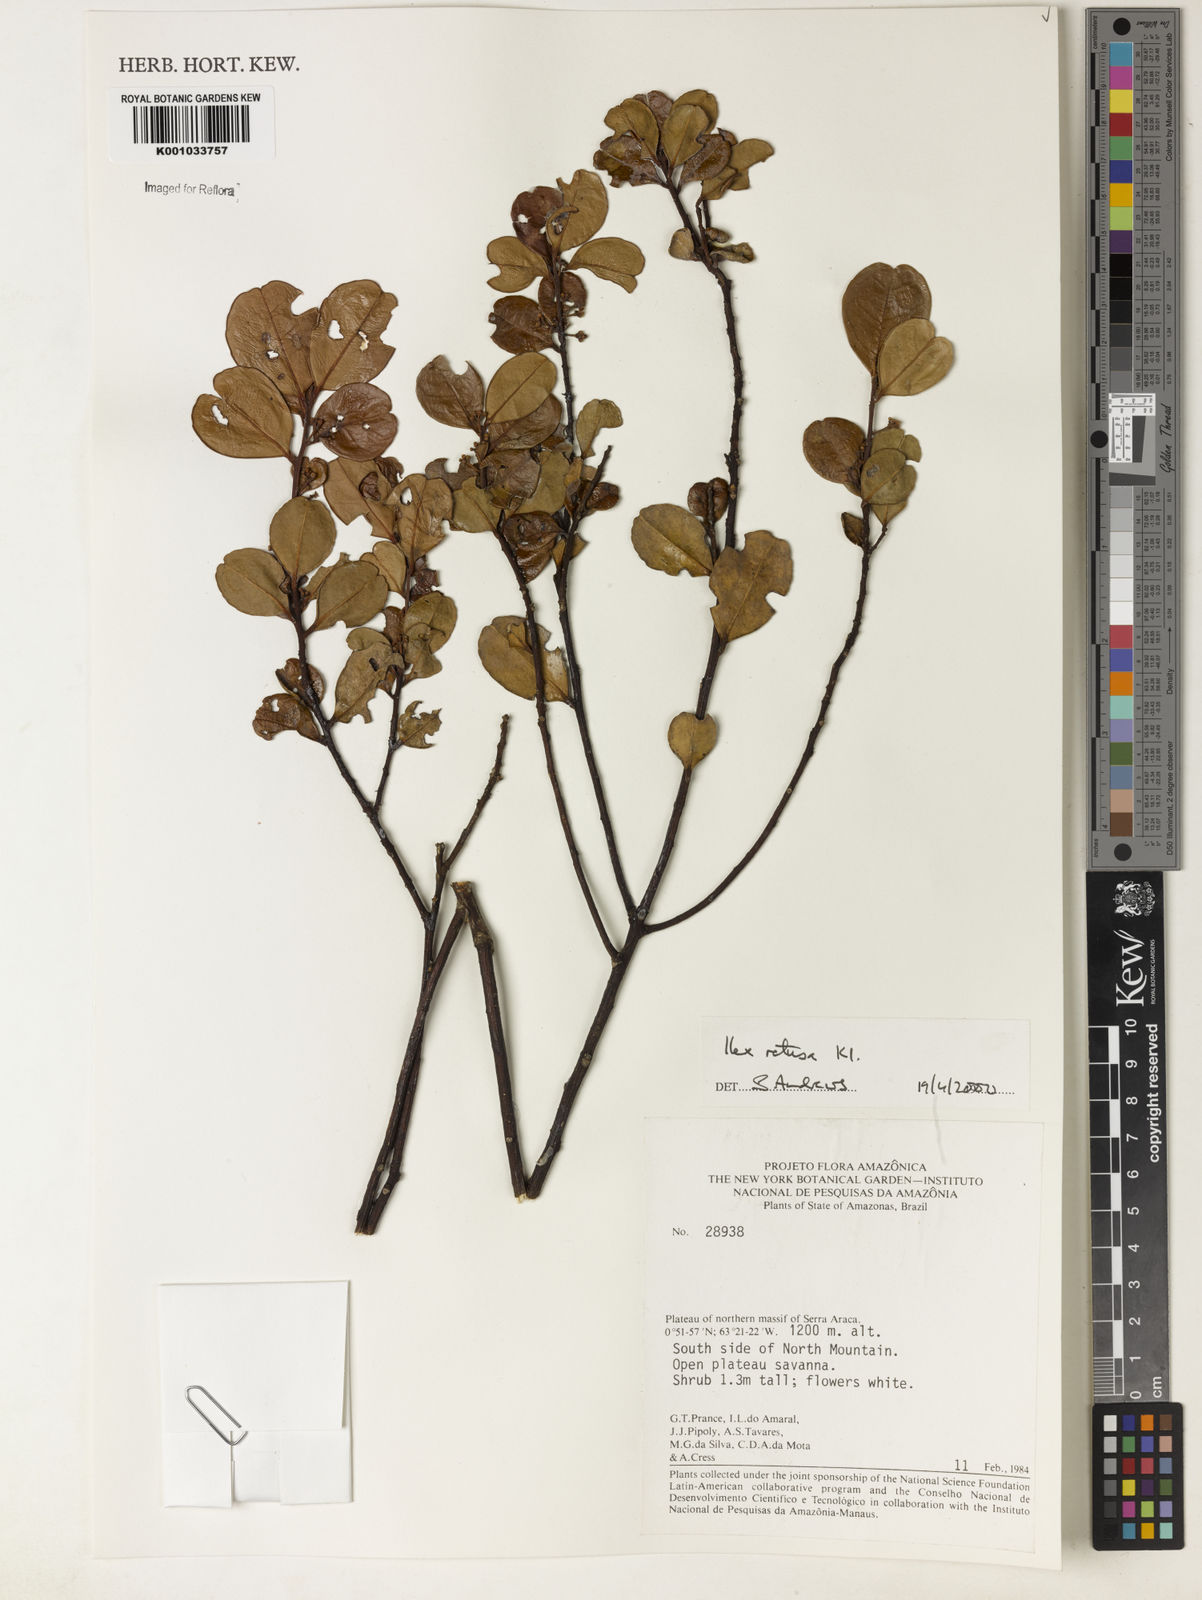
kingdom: Plantae
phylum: Tracheophyta
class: Magnoliopsida
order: Aquifoliales
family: Aquifoliaceae
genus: Ilex
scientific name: Ilex
